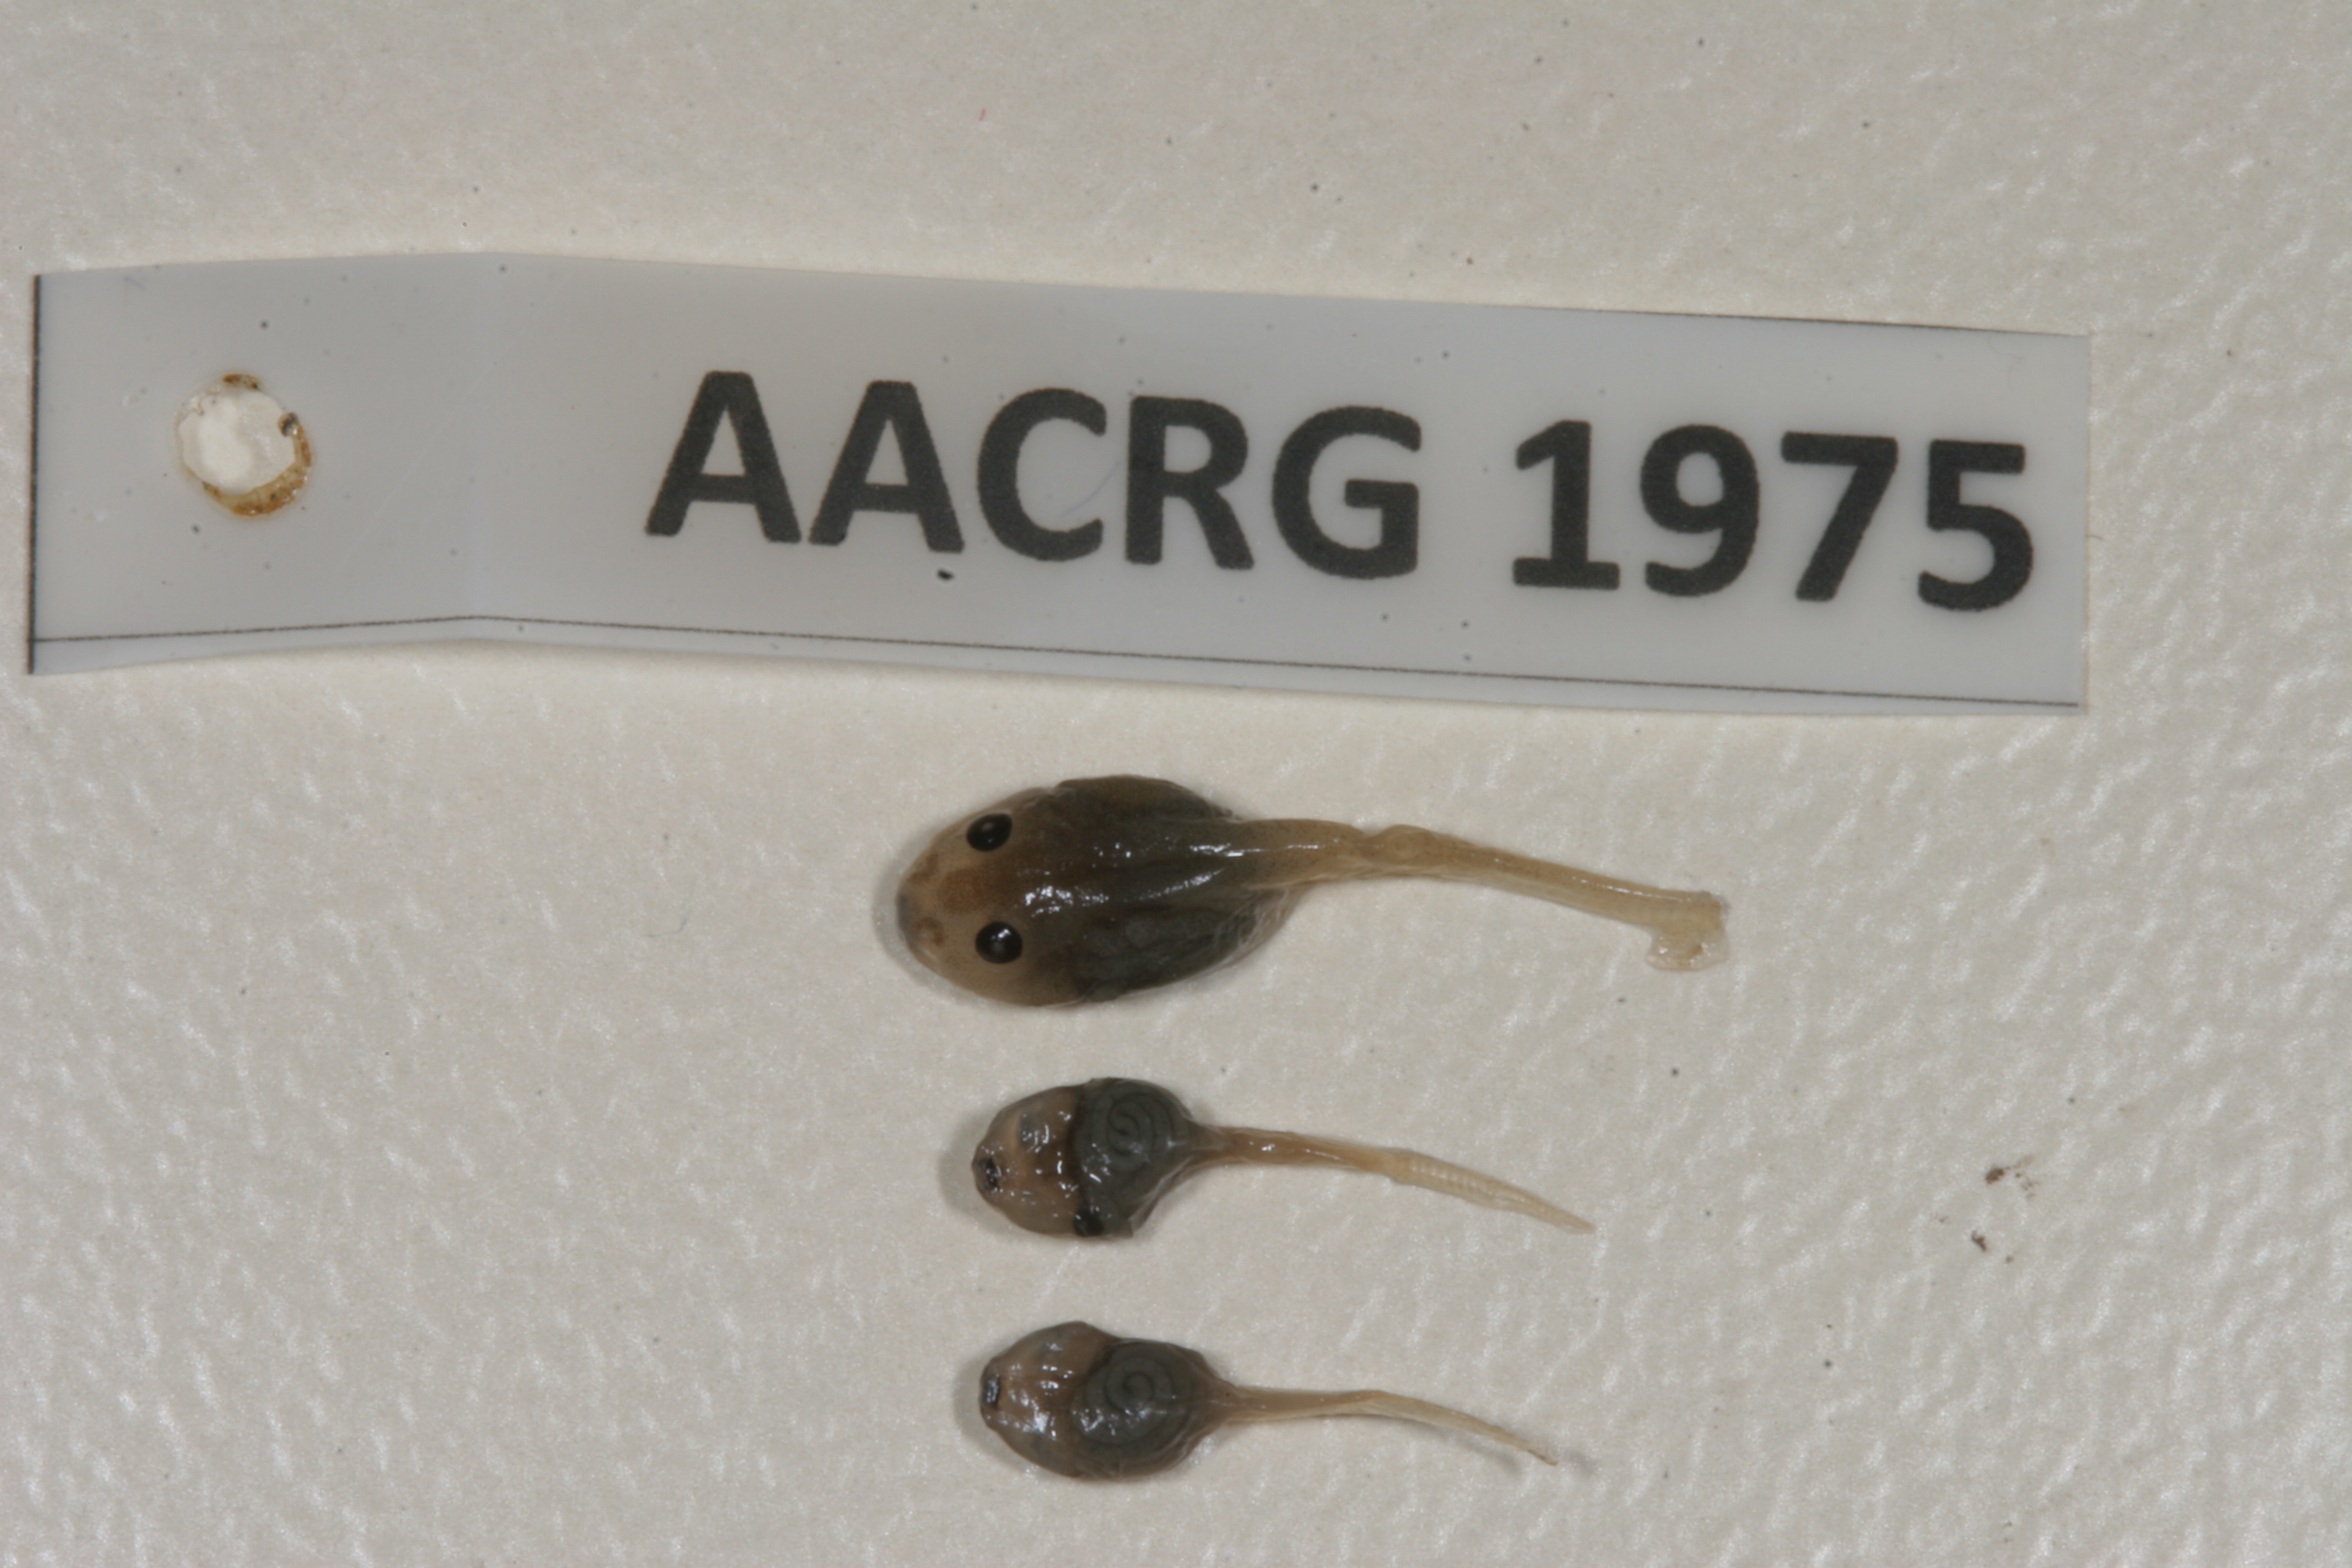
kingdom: Animalia
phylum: Chordata
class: Amphibia
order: Anura
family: Ptychadenidae
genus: Ptychadena
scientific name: Ptychadena oxyrhynchus
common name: Sharp-nosed ridged frog
